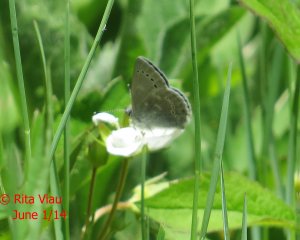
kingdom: Animalia
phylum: Arthropoda
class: Insecta
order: Lepidoptera
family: Lycaenidae
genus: Glaucopsyche
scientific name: Glaucopsyche lygdamus
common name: Silvery Blue
